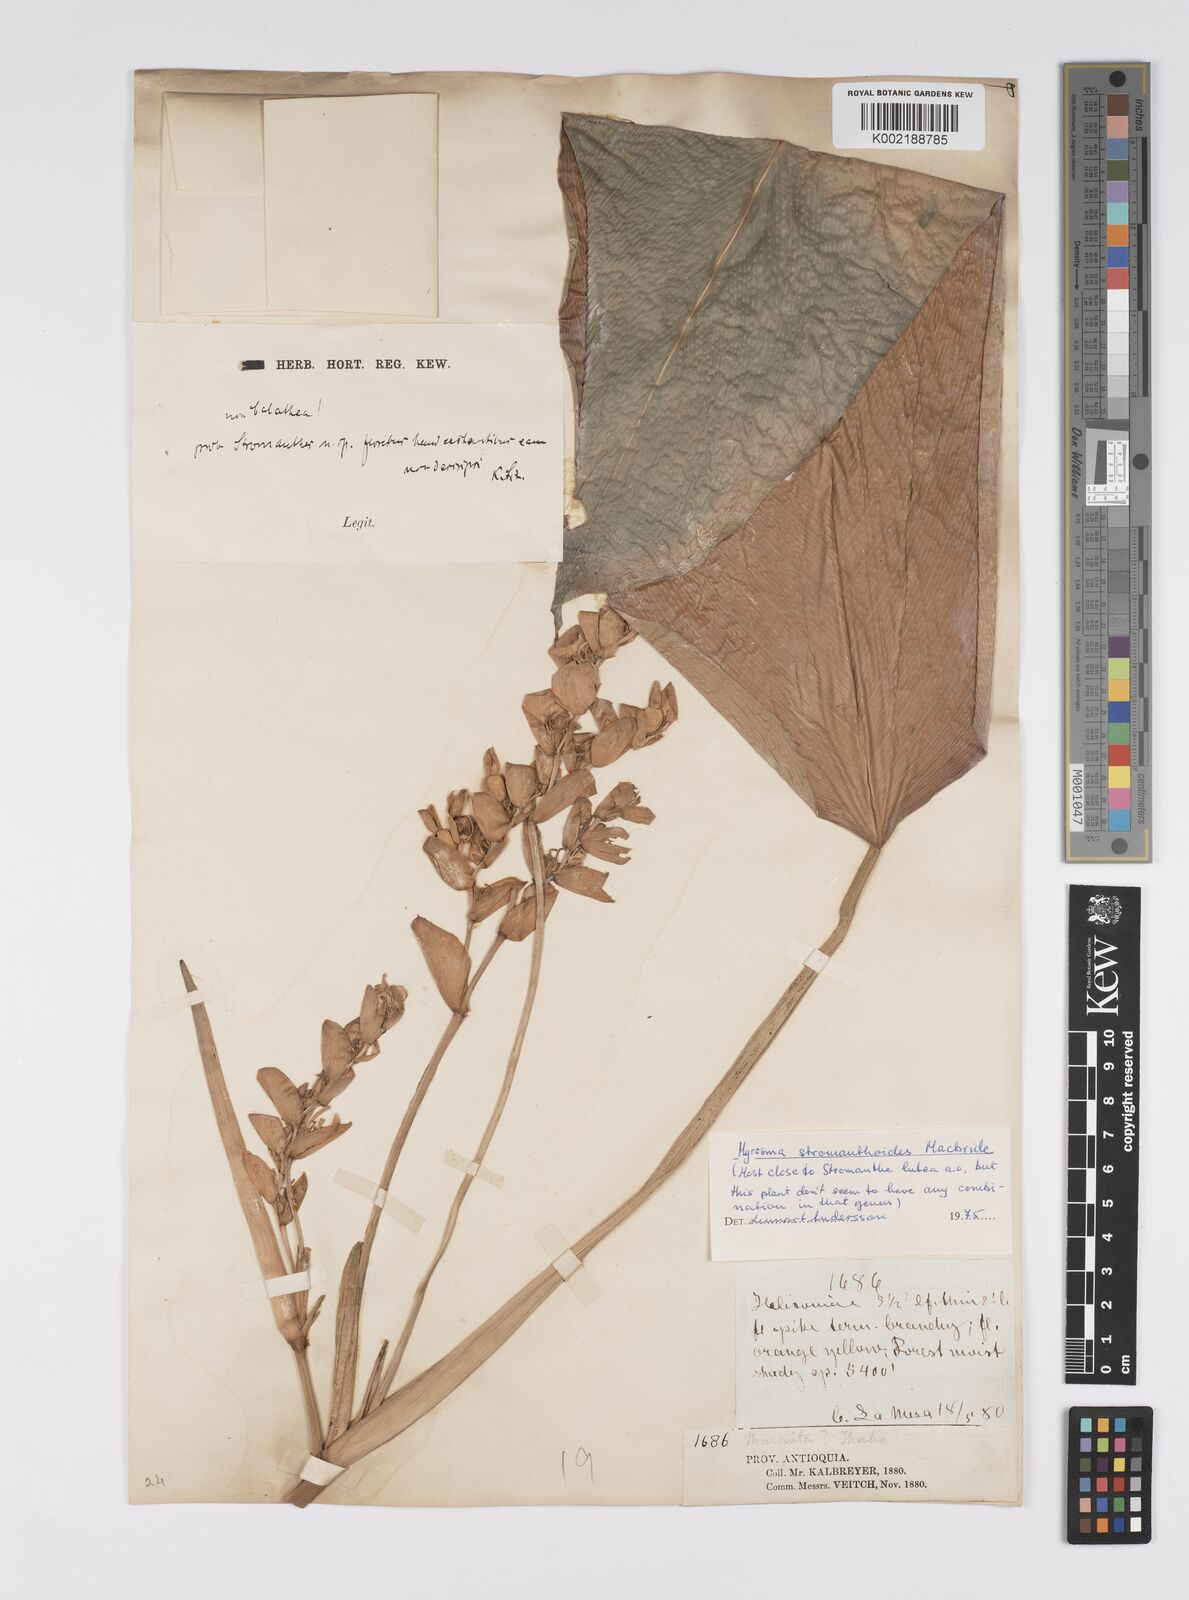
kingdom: Plantae
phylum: Tracheophyta
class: Liliopsida
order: Zingiberales
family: Marantaceae
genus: Stromanthe
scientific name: Stromanthe stromanthoides
